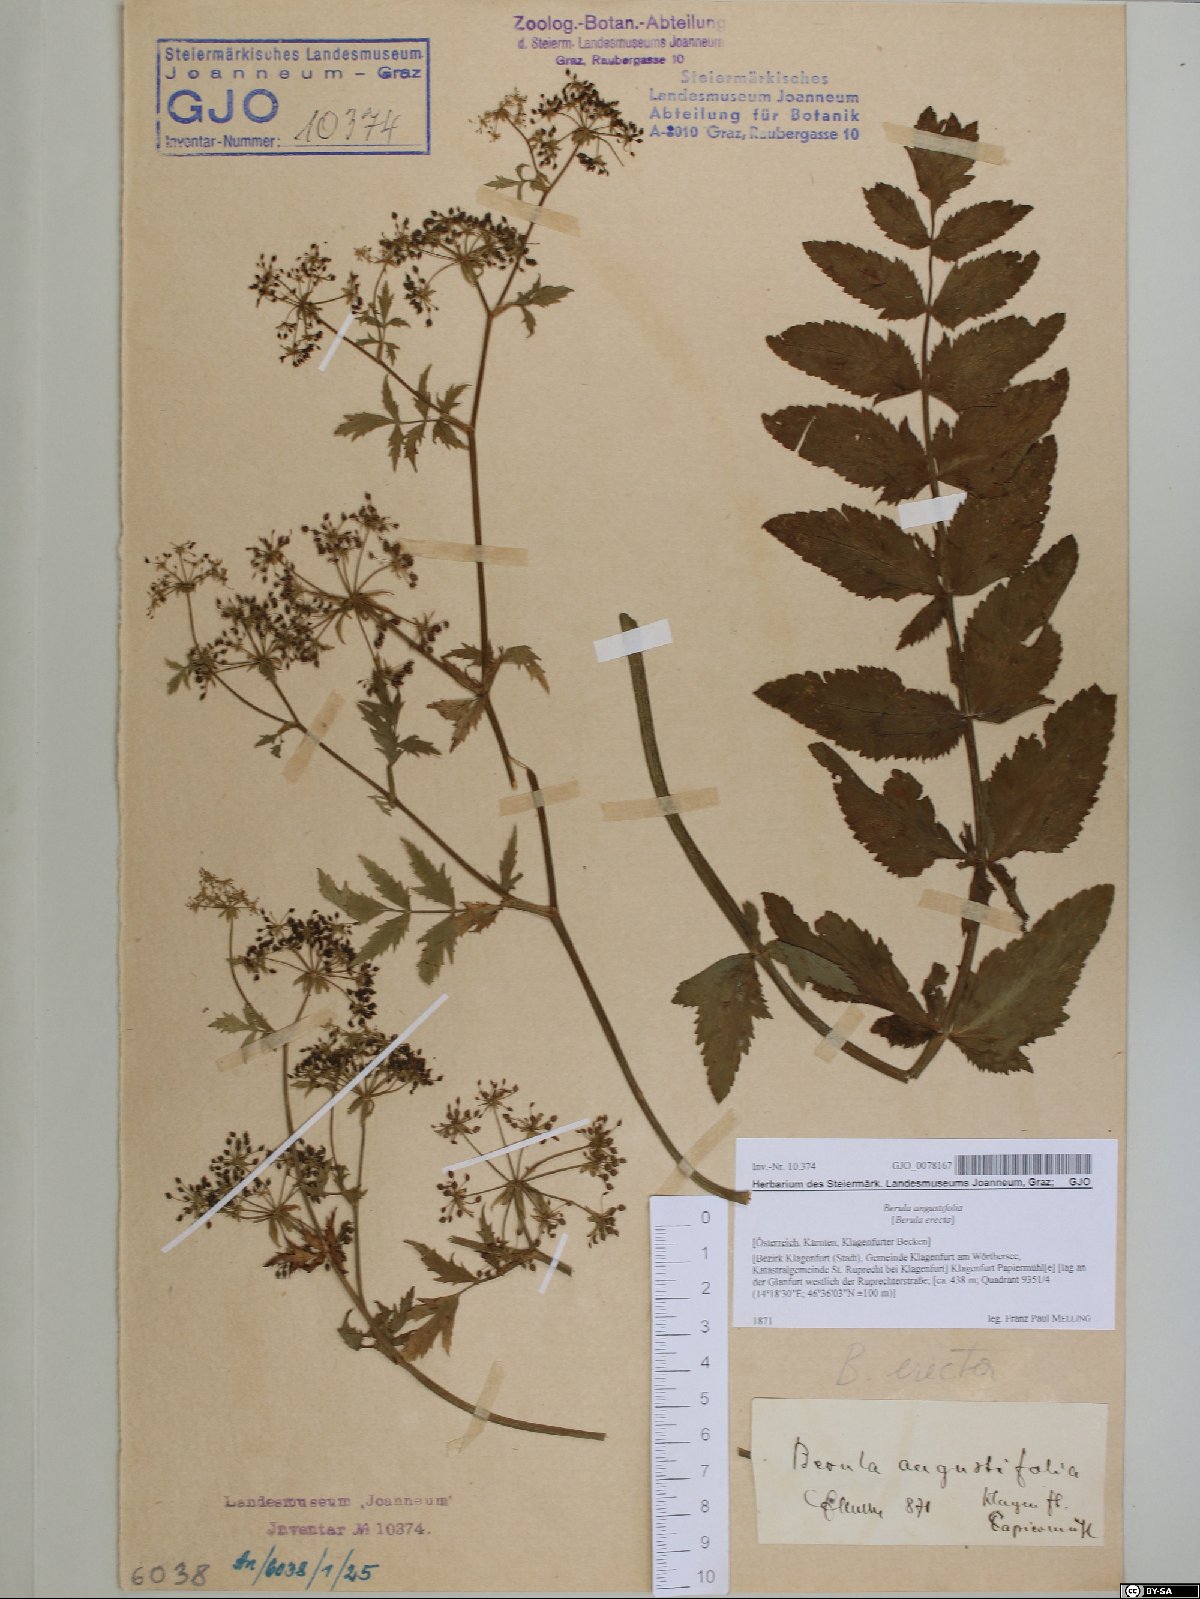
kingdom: Plantae
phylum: Tracheophyta
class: Magnoliopsida
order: Apiales
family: Apiaceae
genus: Berula
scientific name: Berula erecta
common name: Lesser water-parsnip
